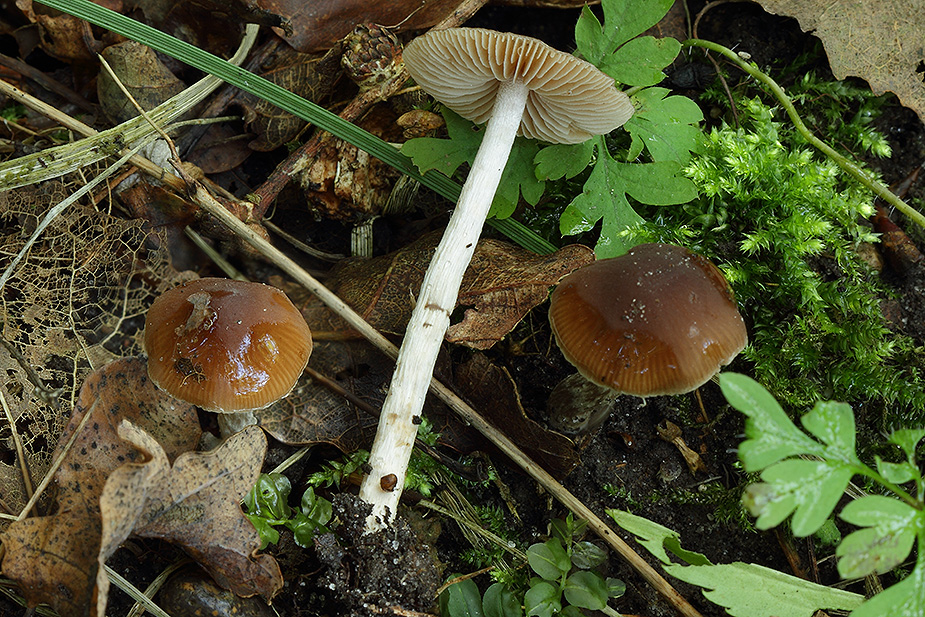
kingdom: Fungi
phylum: Basidiomycota
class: Agaricomycetes
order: Agaricales
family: Hymenogastraceae
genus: Naucoria
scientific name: Naucoria bohemica
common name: birke-knaphat
